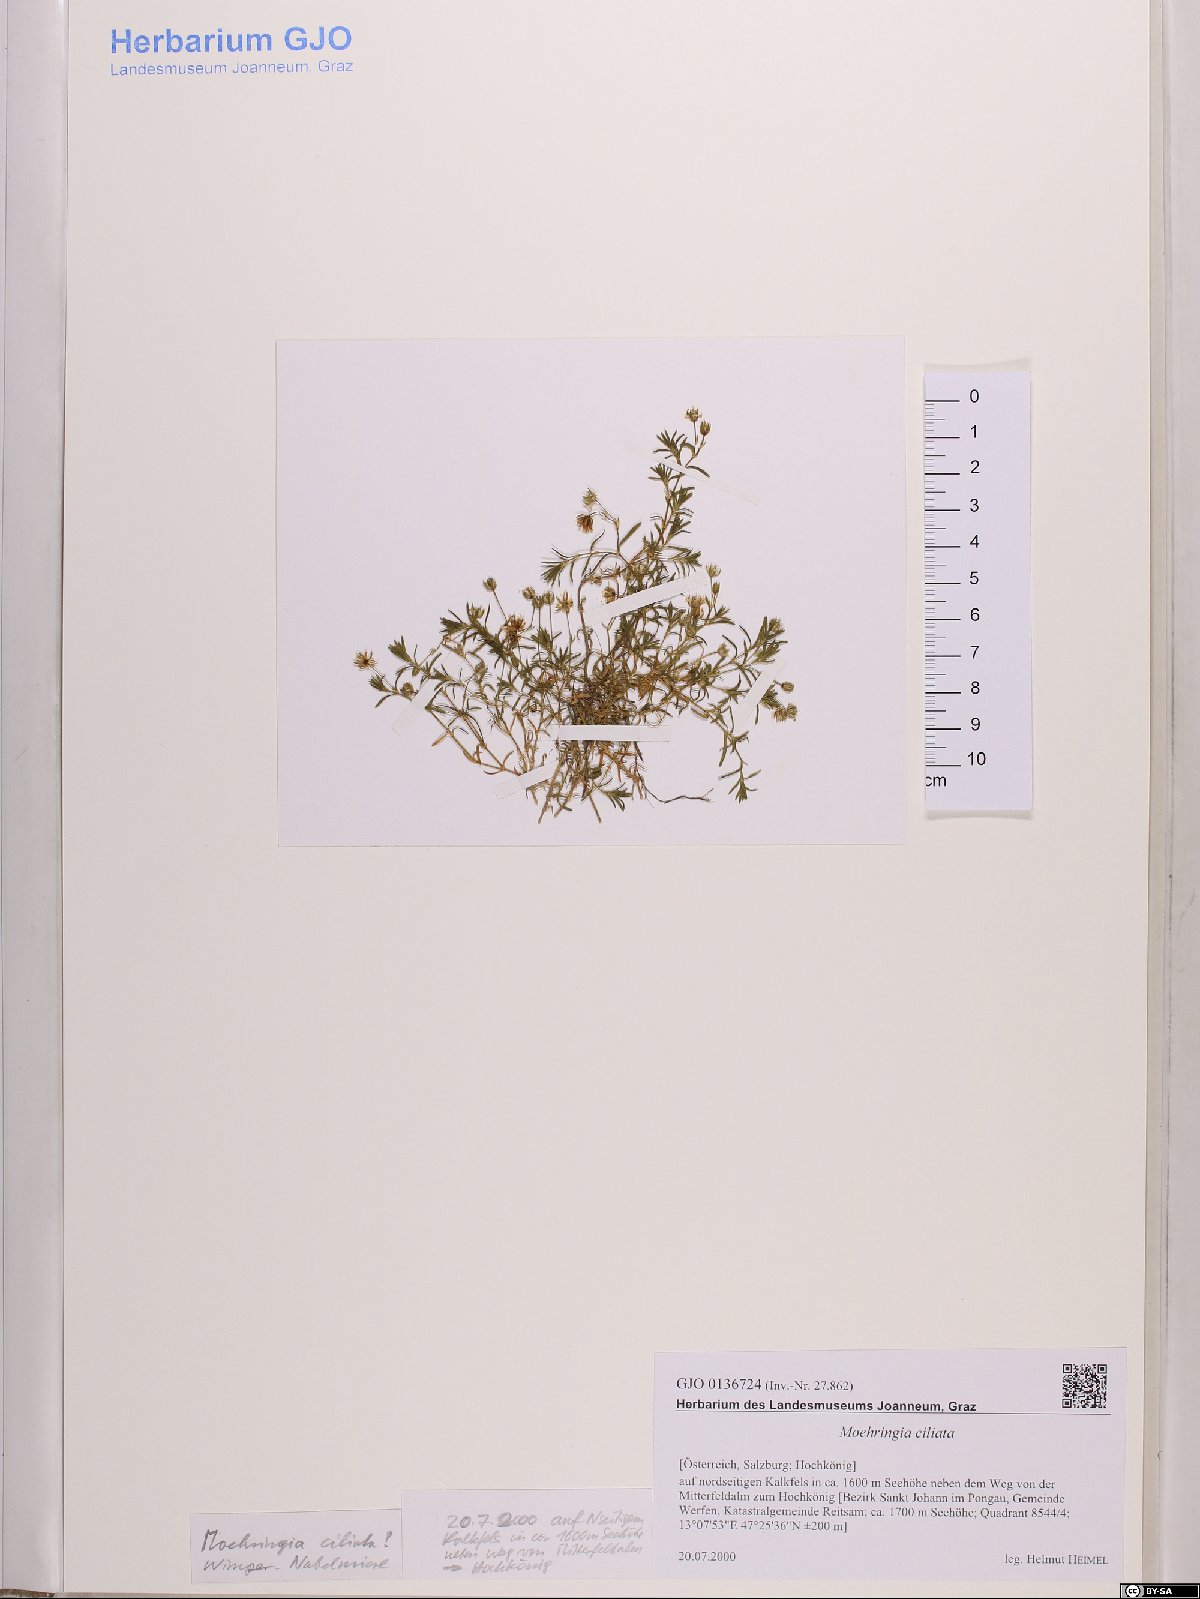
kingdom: Plantae
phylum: Tracheophyta
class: Magnoliopsida
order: Caryophyllales
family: Caryophyllaceae
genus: Moehringia
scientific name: Moehringia ciliata
